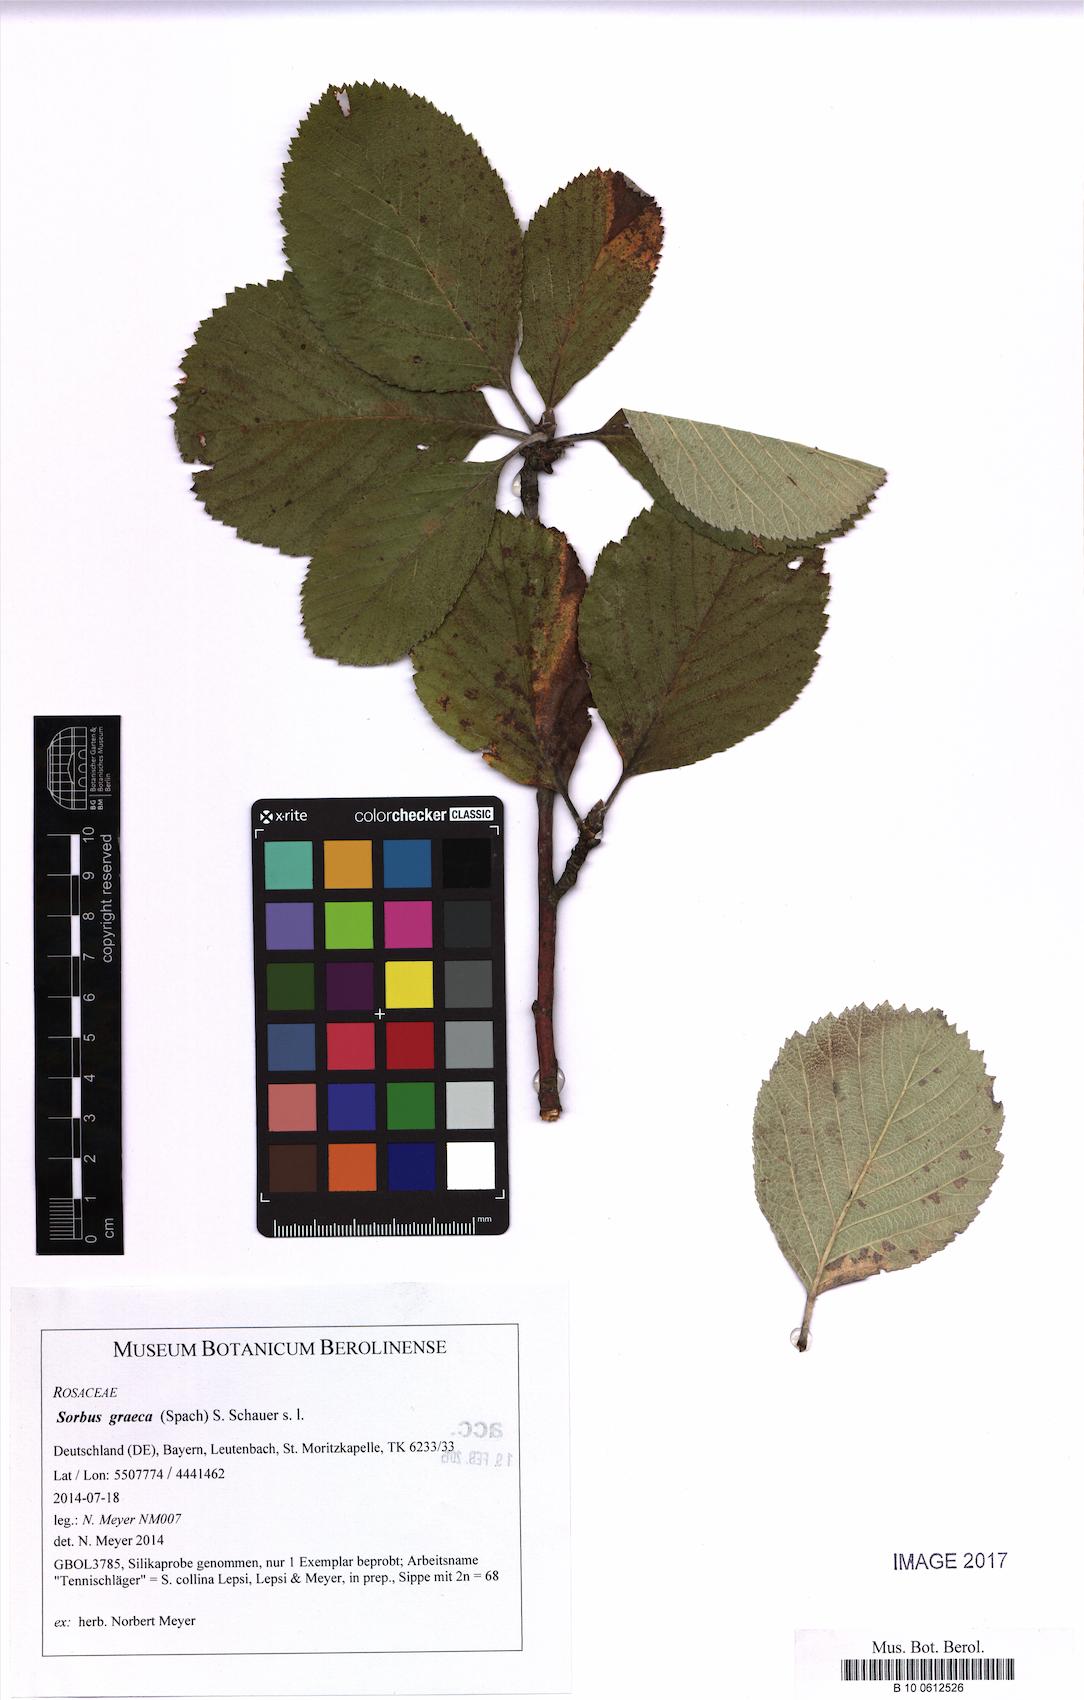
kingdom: Plantae
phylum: Tracheophyta
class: Magnoliopsida
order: Rosales
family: Rosaceae
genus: Aria
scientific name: Aria graeca
